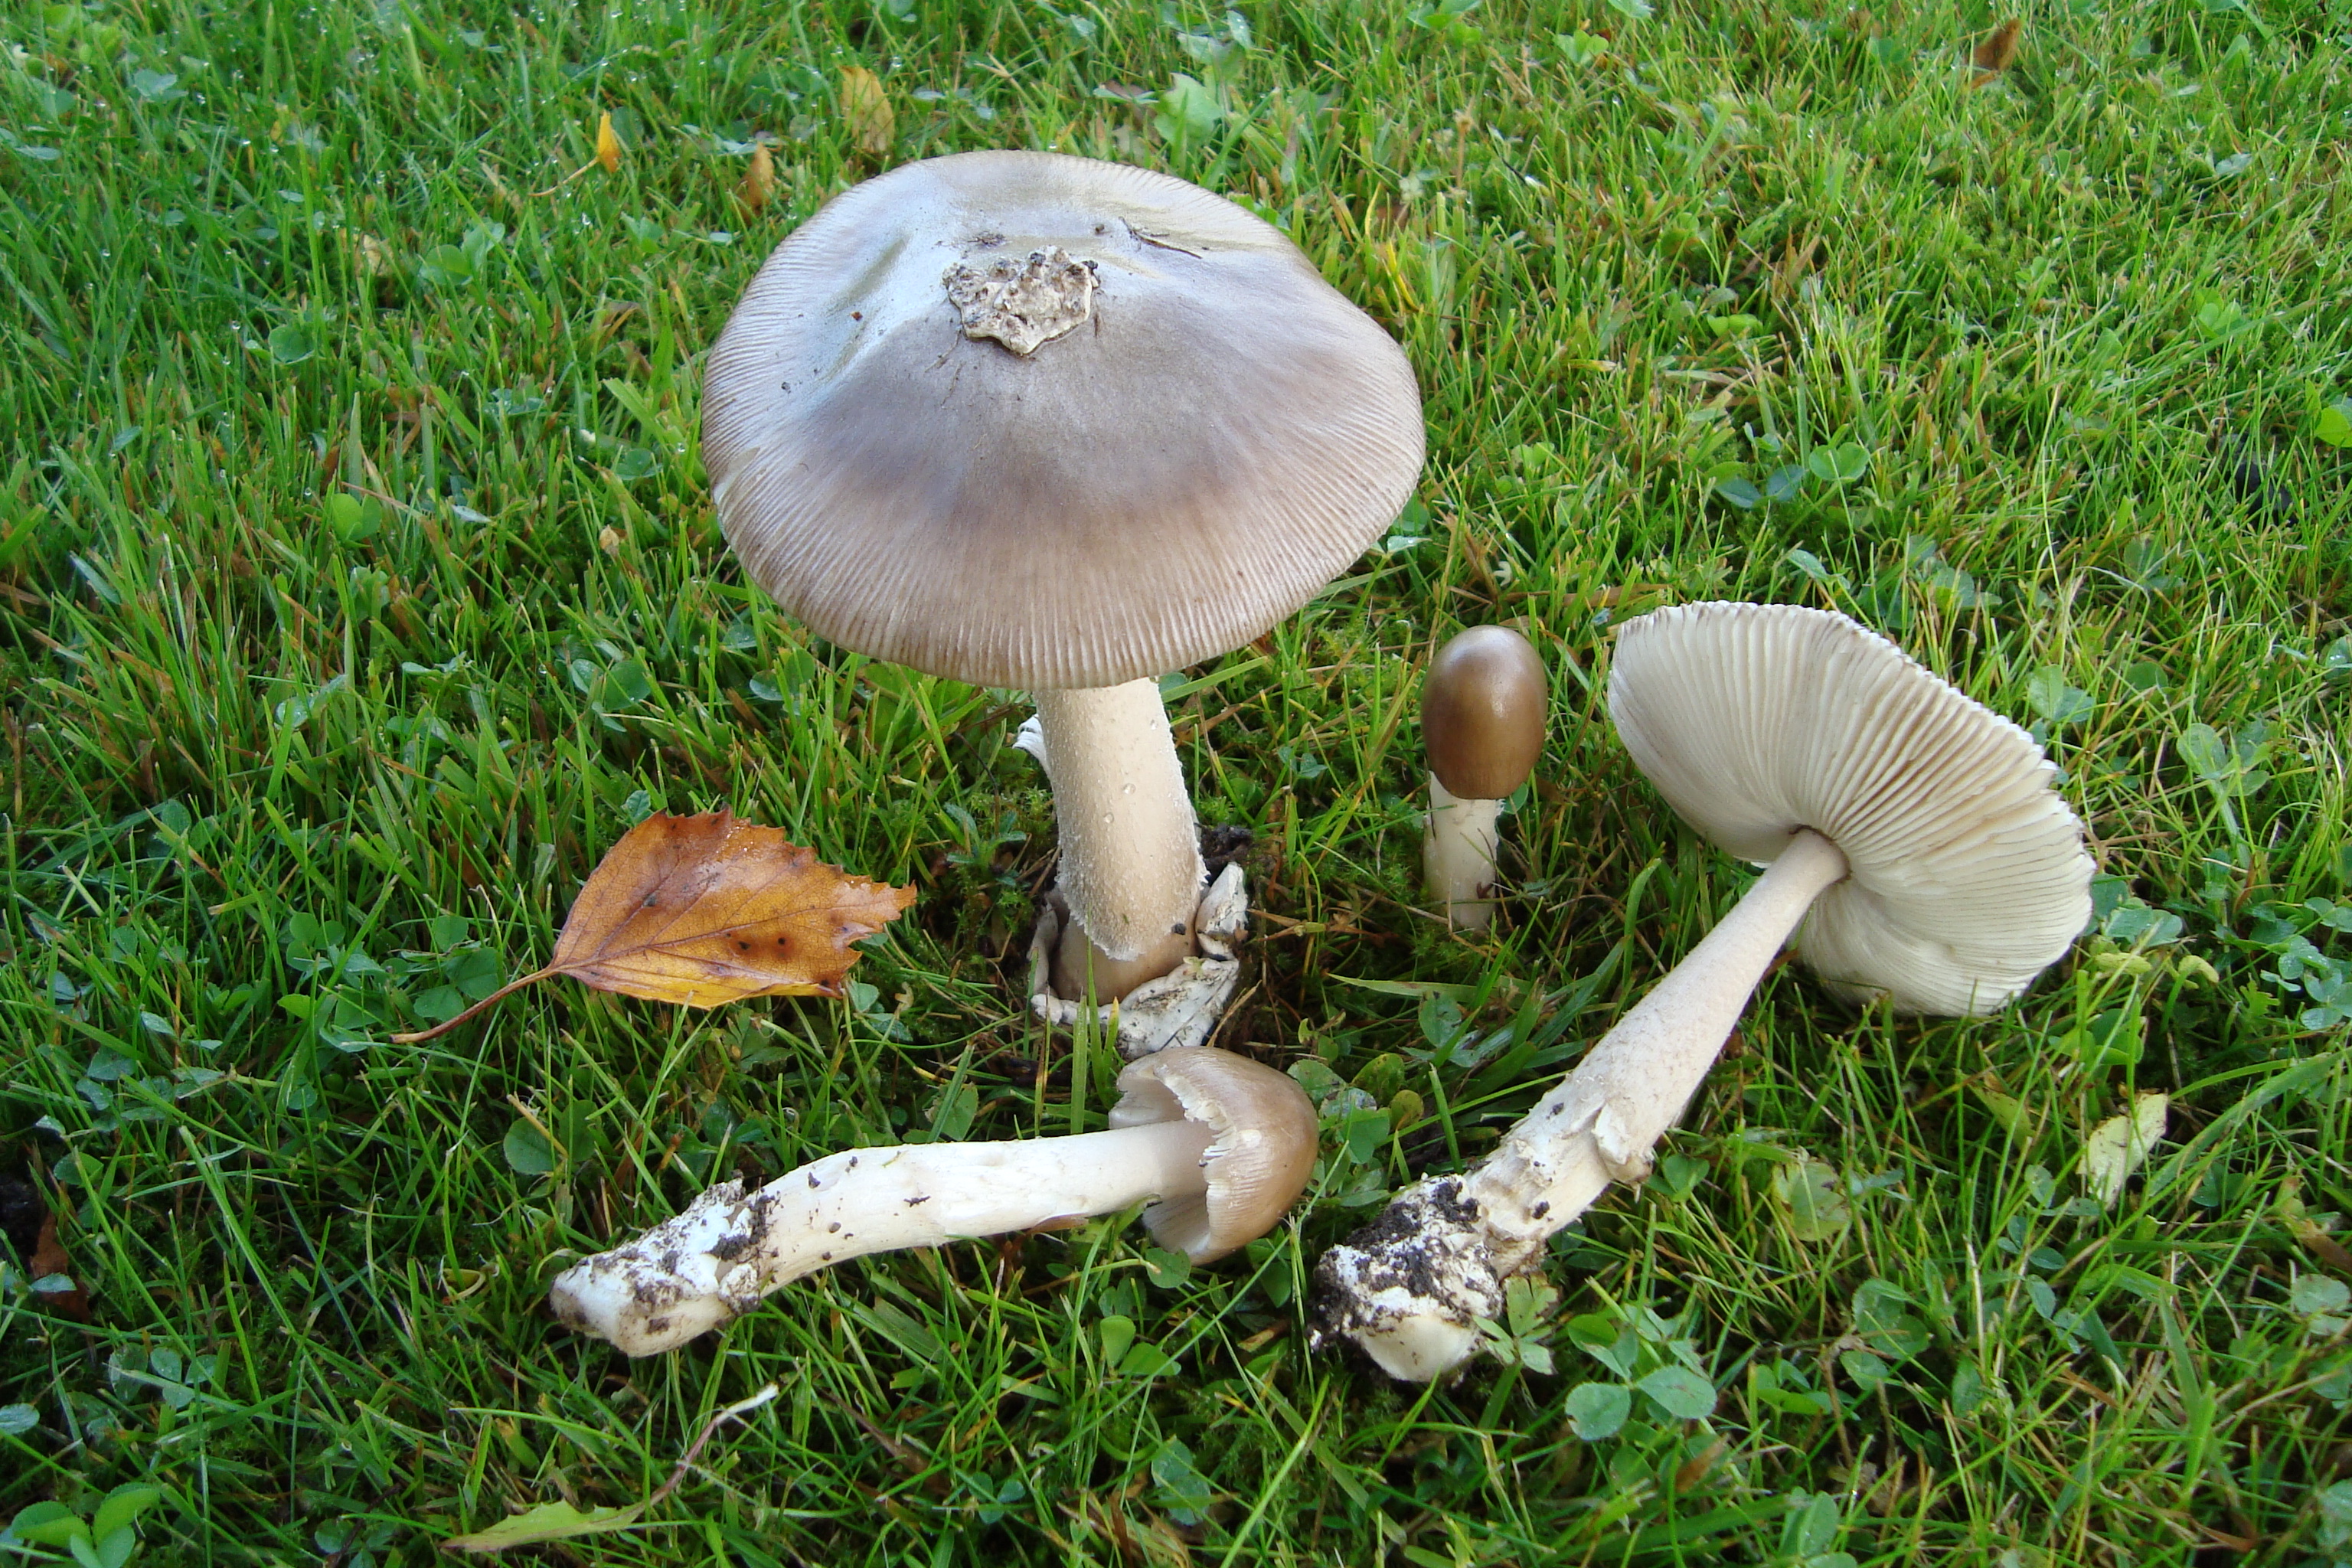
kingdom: Fungi
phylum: Basidiomycota
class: Agaricomycetes
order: Agaricales
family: Amanitaceae
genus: Amanita
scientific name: Amanita betulae
